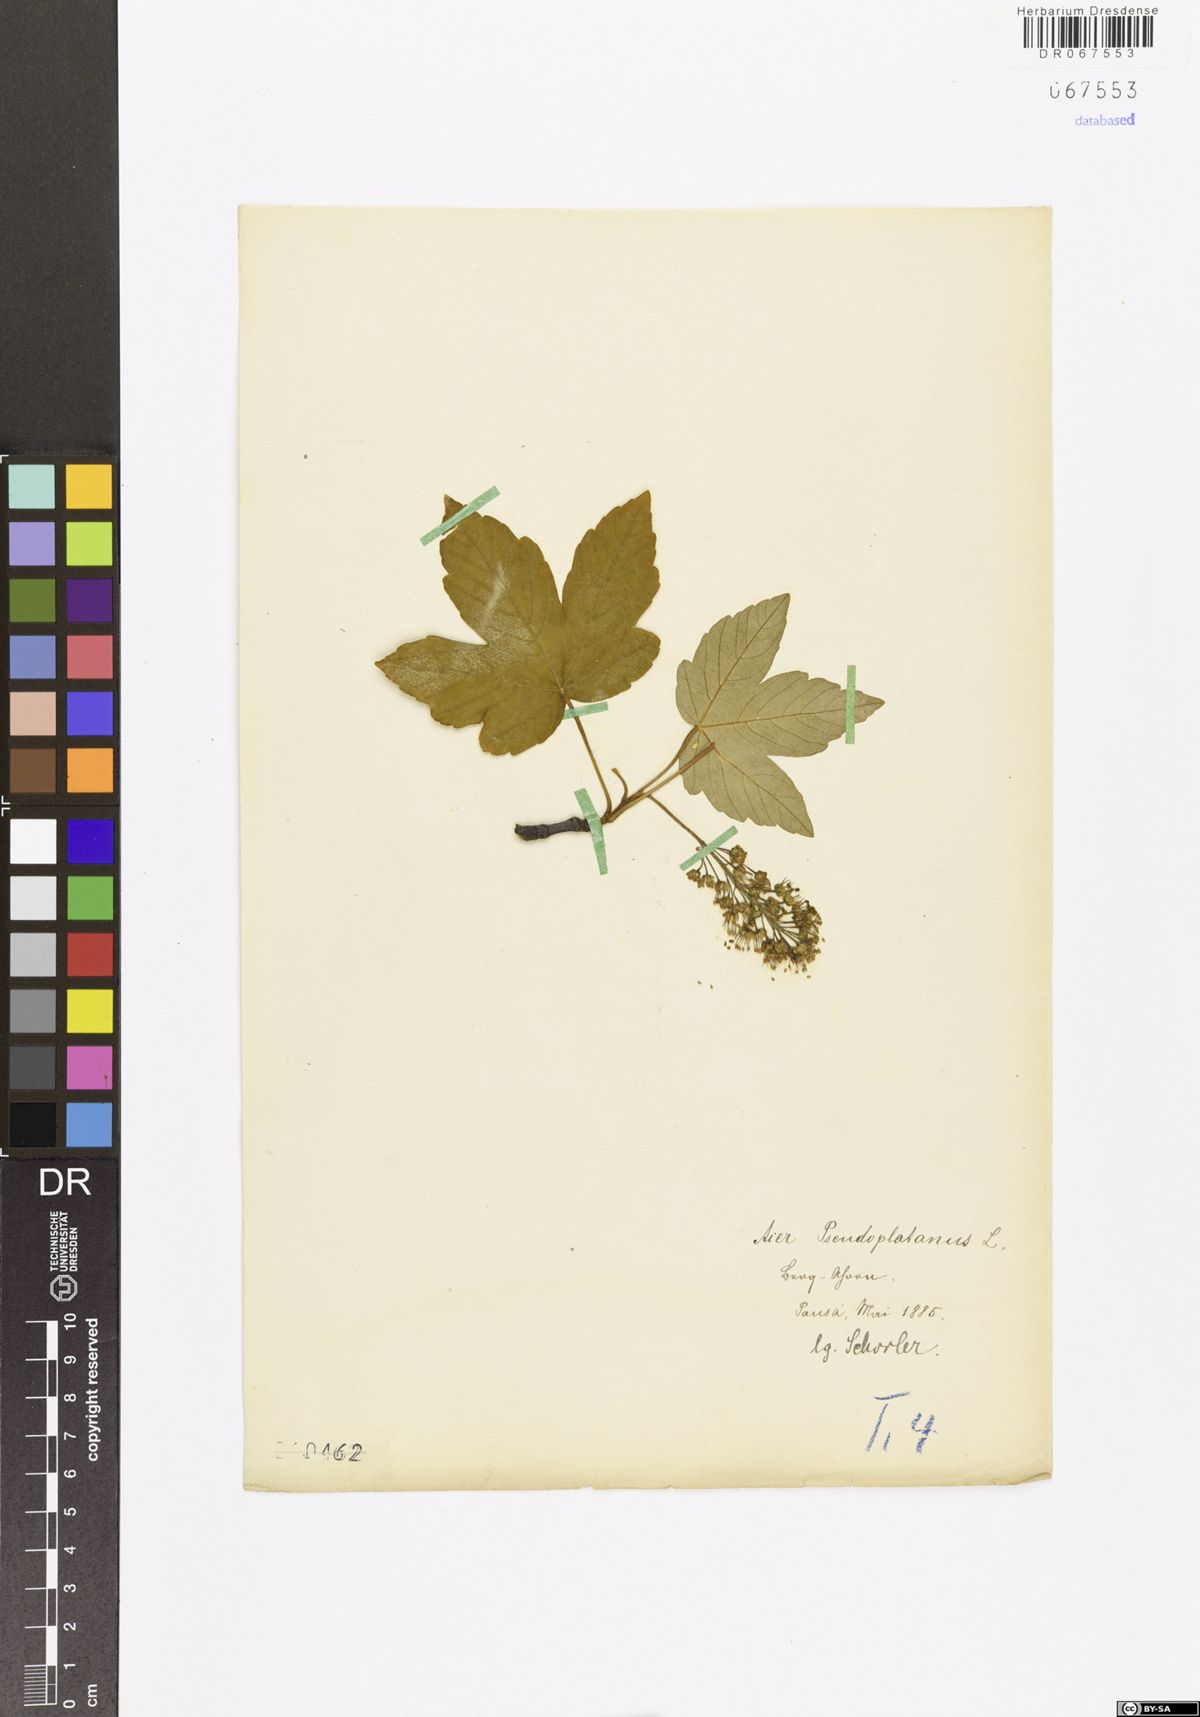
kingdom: Plantae
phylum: Tracheophyta
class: Magnoliopsida
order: Sapindales
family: Sapindaceae
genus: Acer
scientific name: Acer pseudoplatanus
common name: Sycamore
